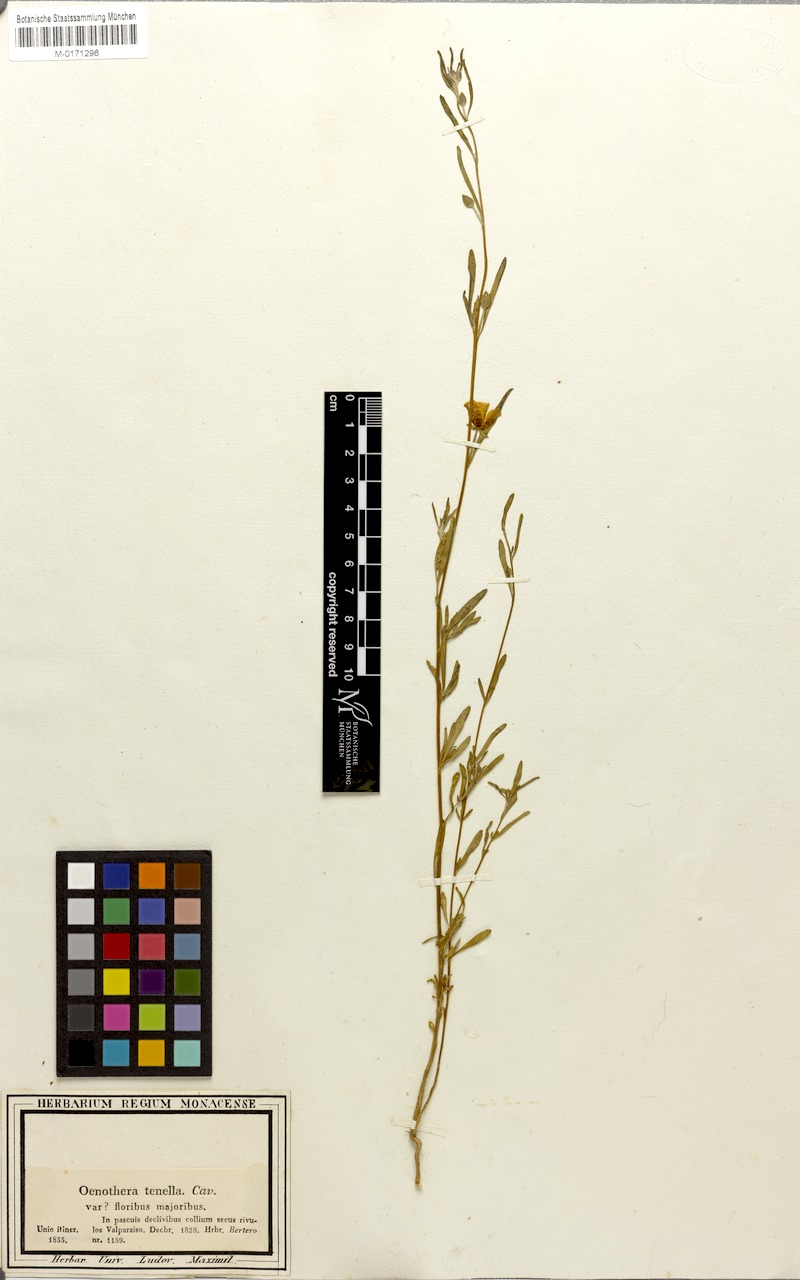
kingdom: Plantae
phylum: Tracheophyta
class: Magnoliopsida
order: Myrtales
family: Onagraceae
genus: Clarkia
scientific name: Clarkia tenella
